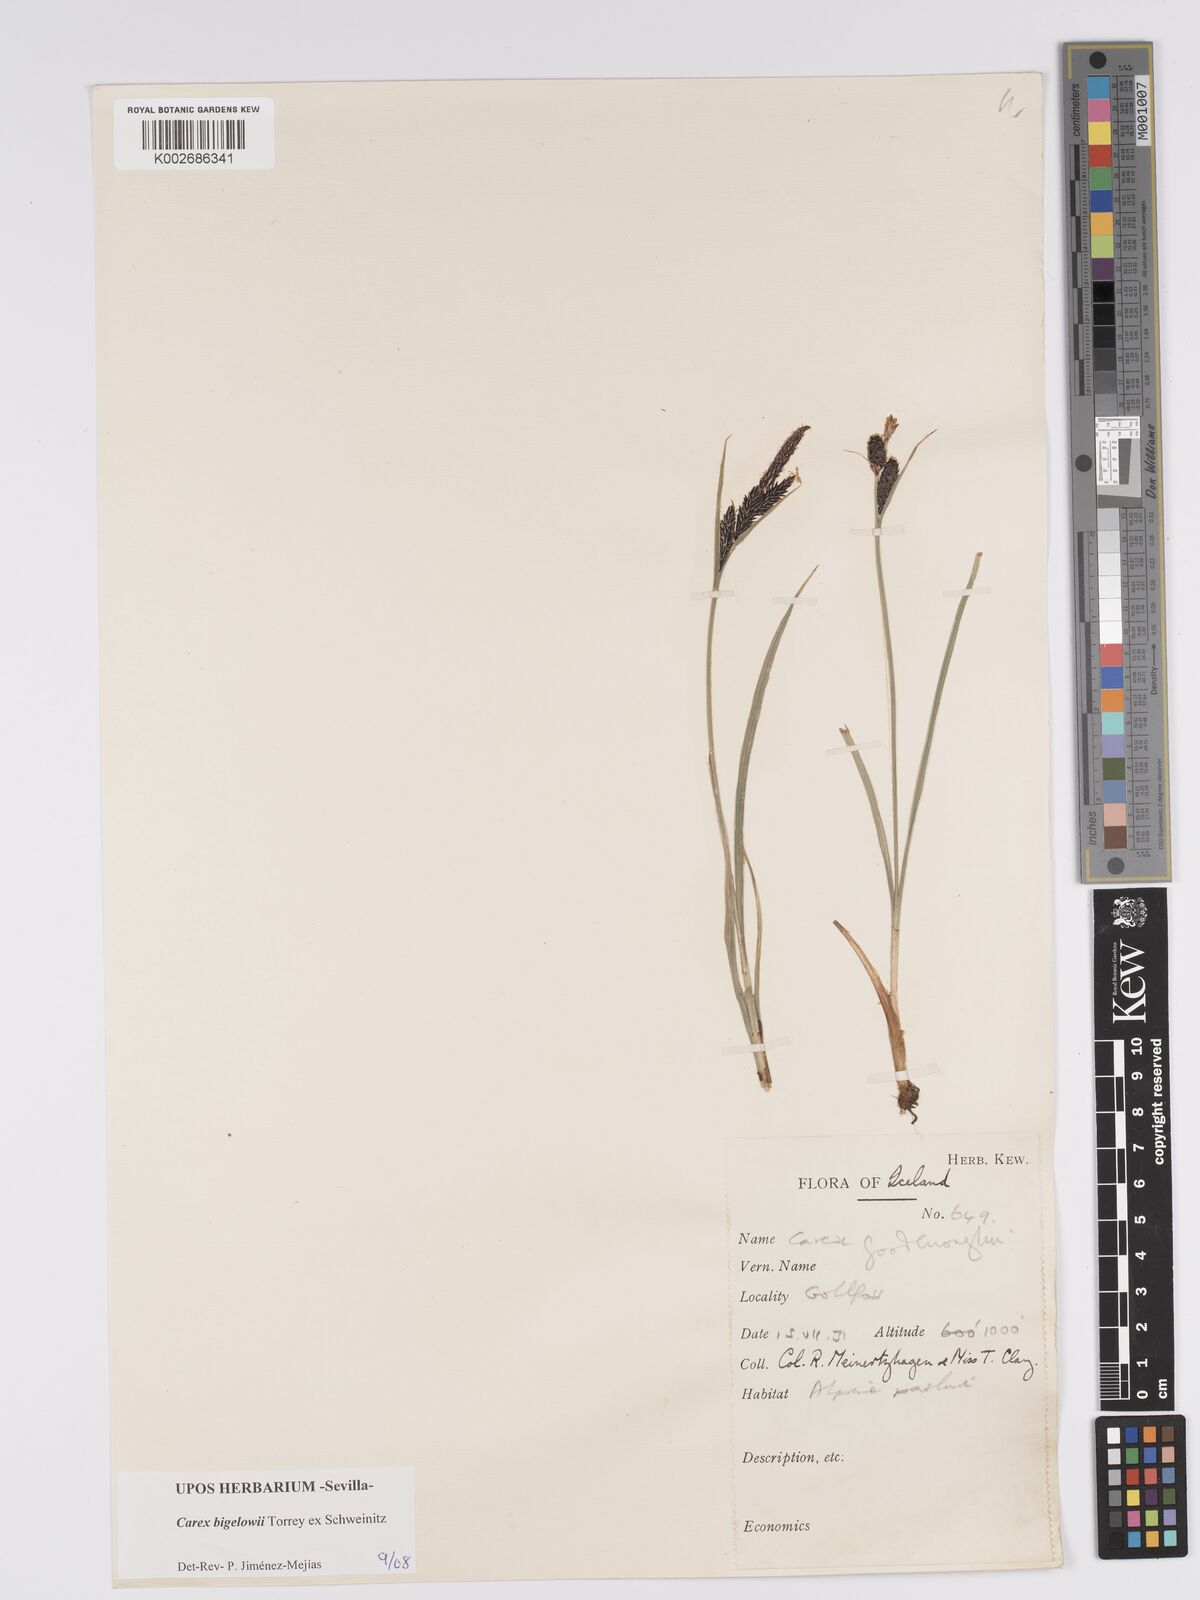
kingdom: Plantae
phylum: Tracheophyta
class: Liliopsida
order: Poales
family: Cyperaceae
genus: Carex
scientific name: Carex bigelowii
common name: Stiff sedge
